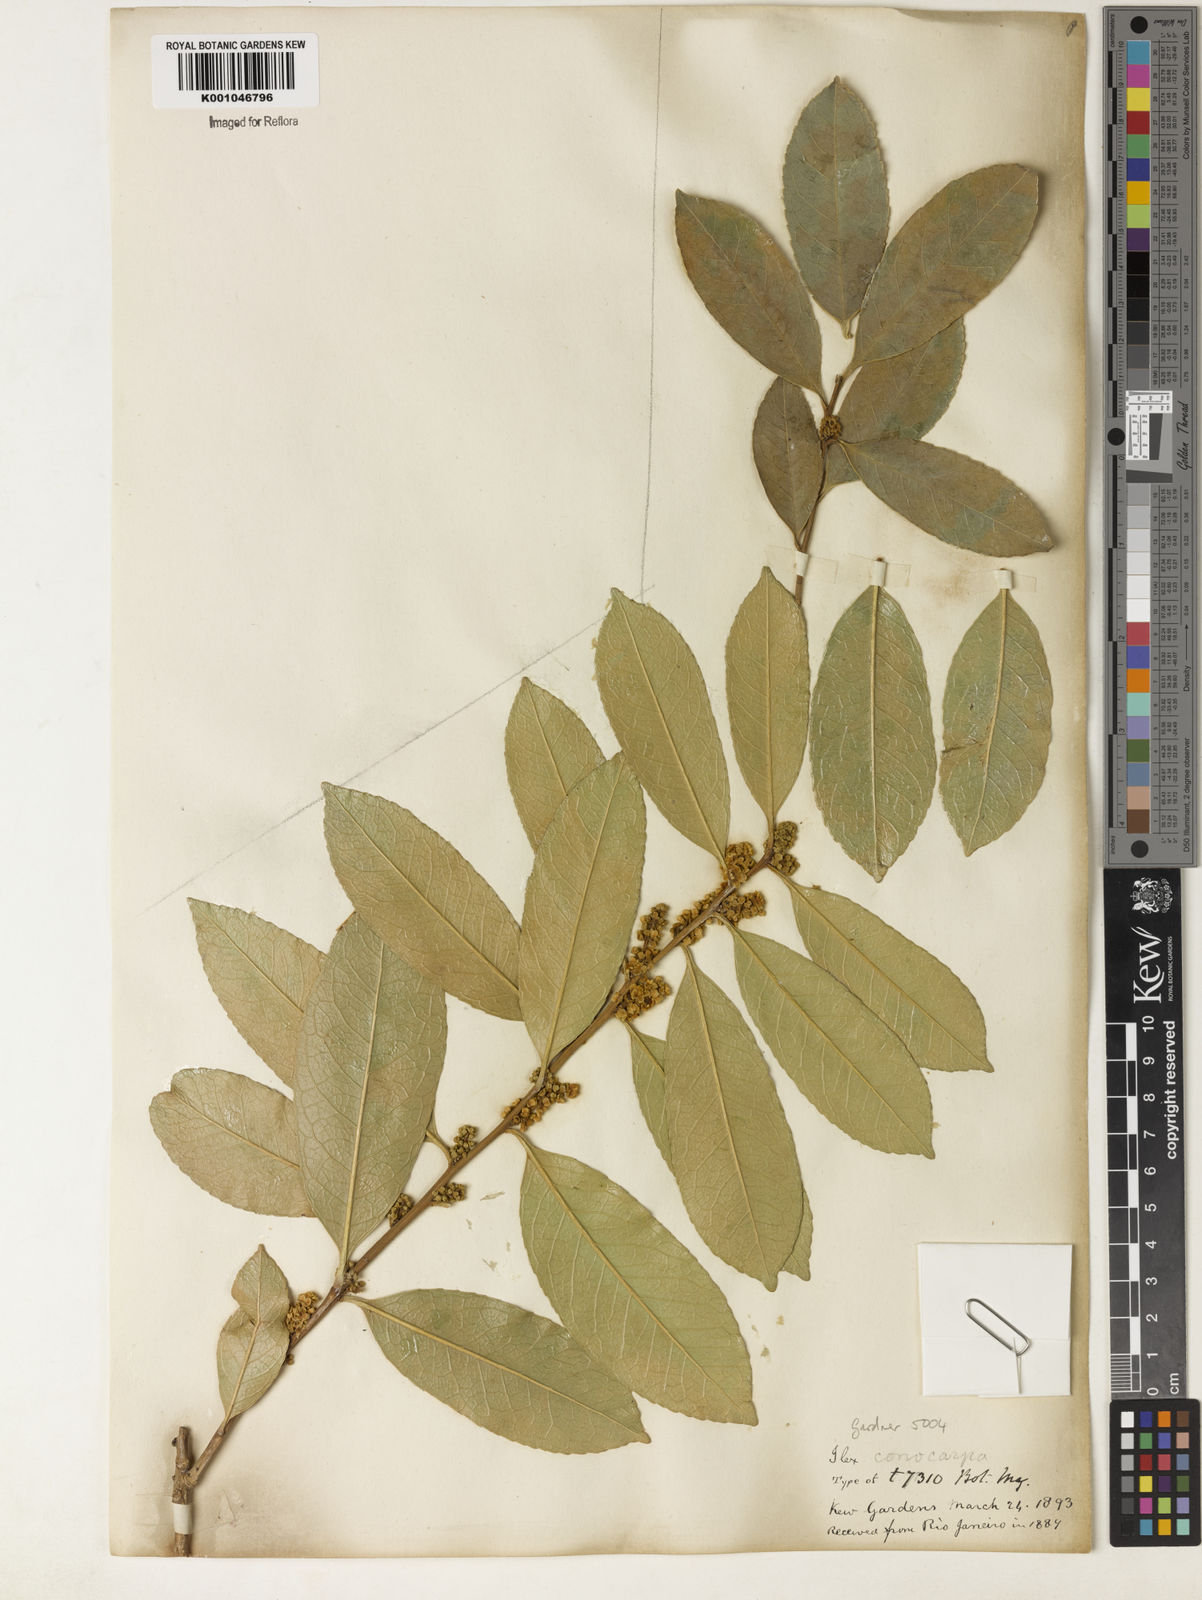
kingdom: Plantae
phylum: Tracheophyta
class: Magnoliopsida
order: Aquifoliales
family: Aquifoliaceae
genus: Ilex
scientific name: Ilex conocarpa
